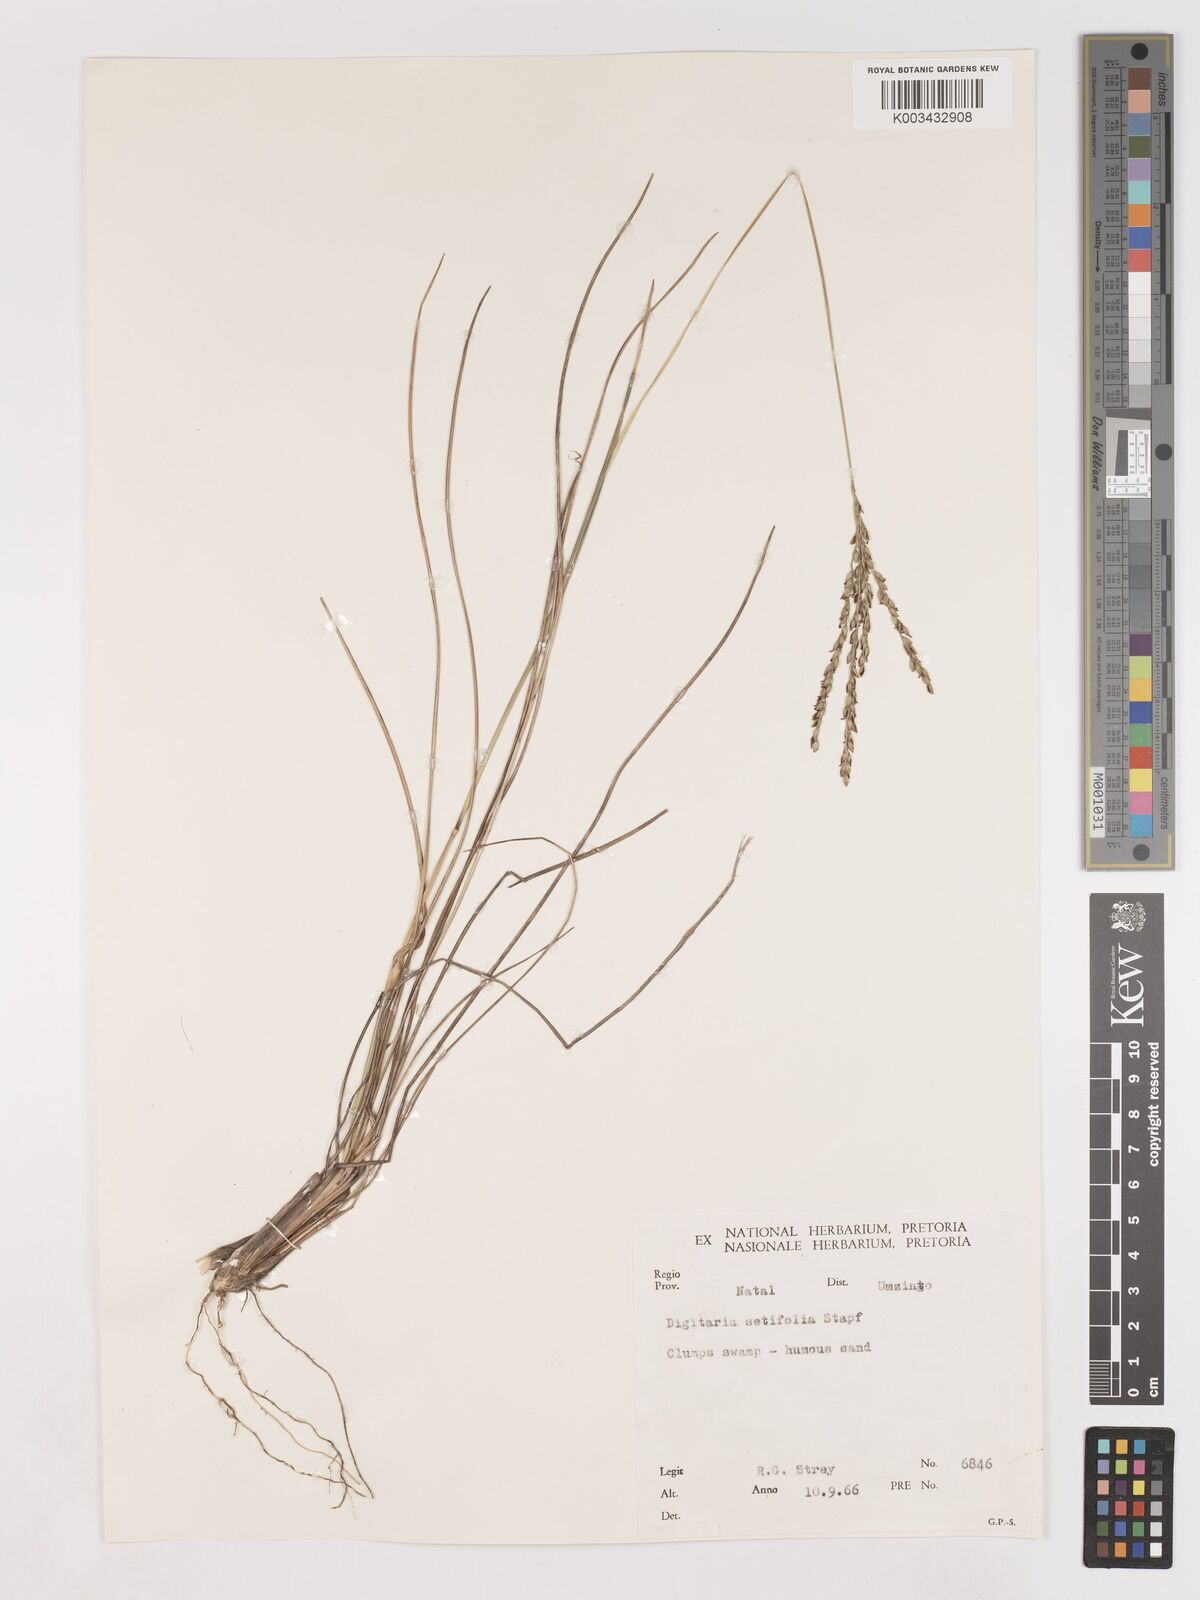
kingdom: Plantae
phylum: Tracheophyta
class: Liliopsida
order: Poales
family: Poaceae
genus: Digitaria
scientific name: Digitaria setifolia
